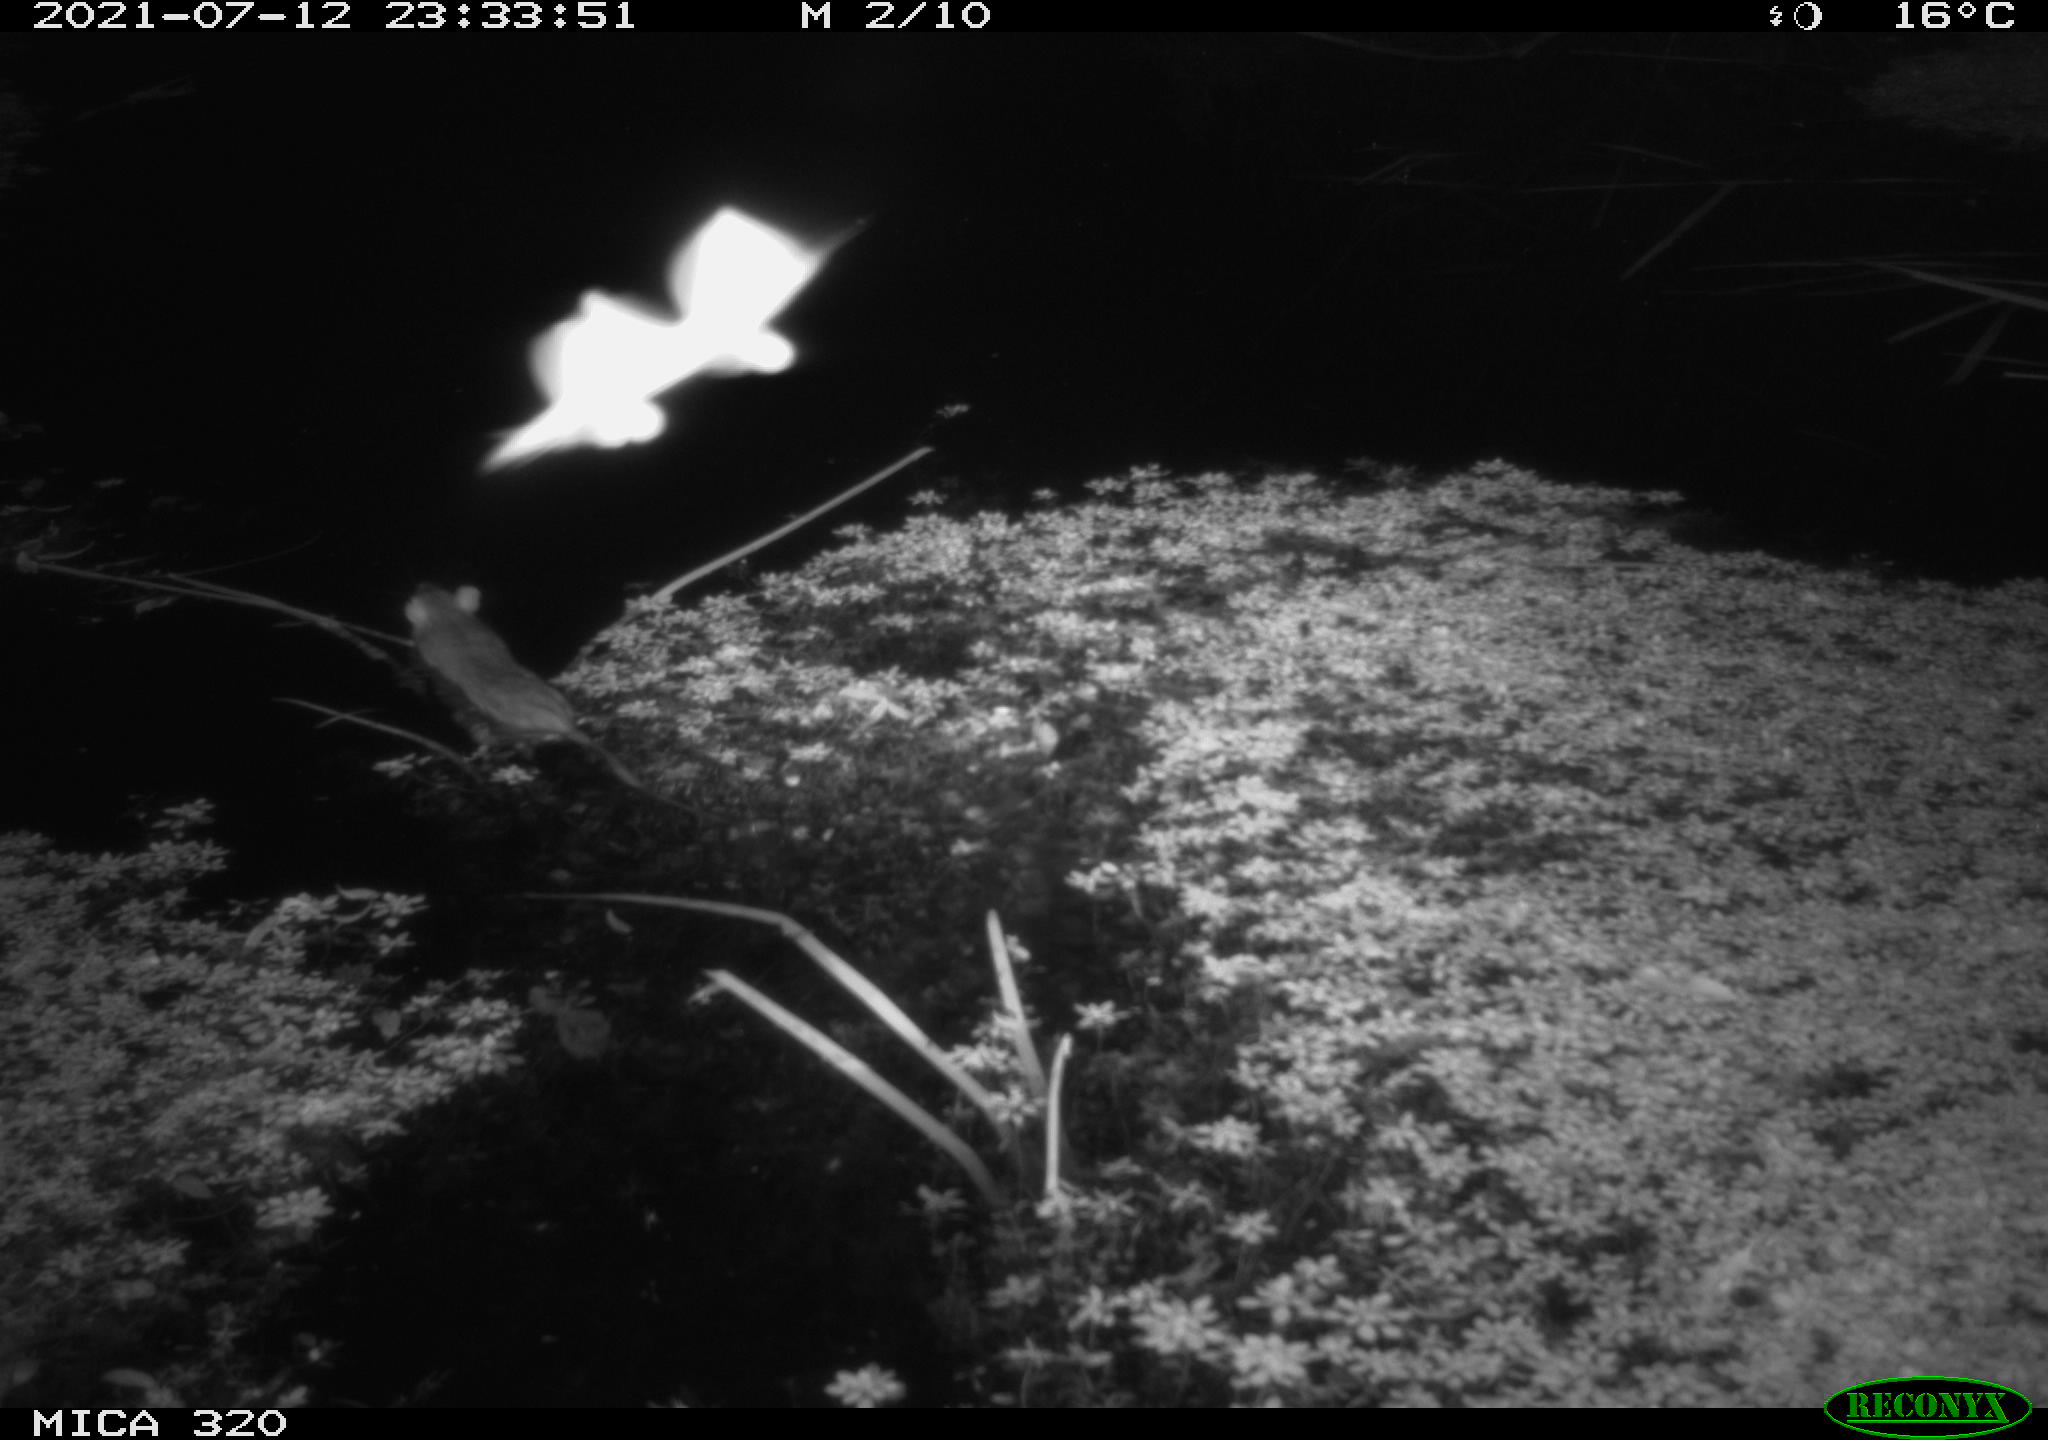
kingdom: Animalia
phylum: Chordata
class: Mammalia
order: Rodentia
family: Muridae
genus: Rattus
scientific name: Rattus norvegicus
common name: Brown rat
